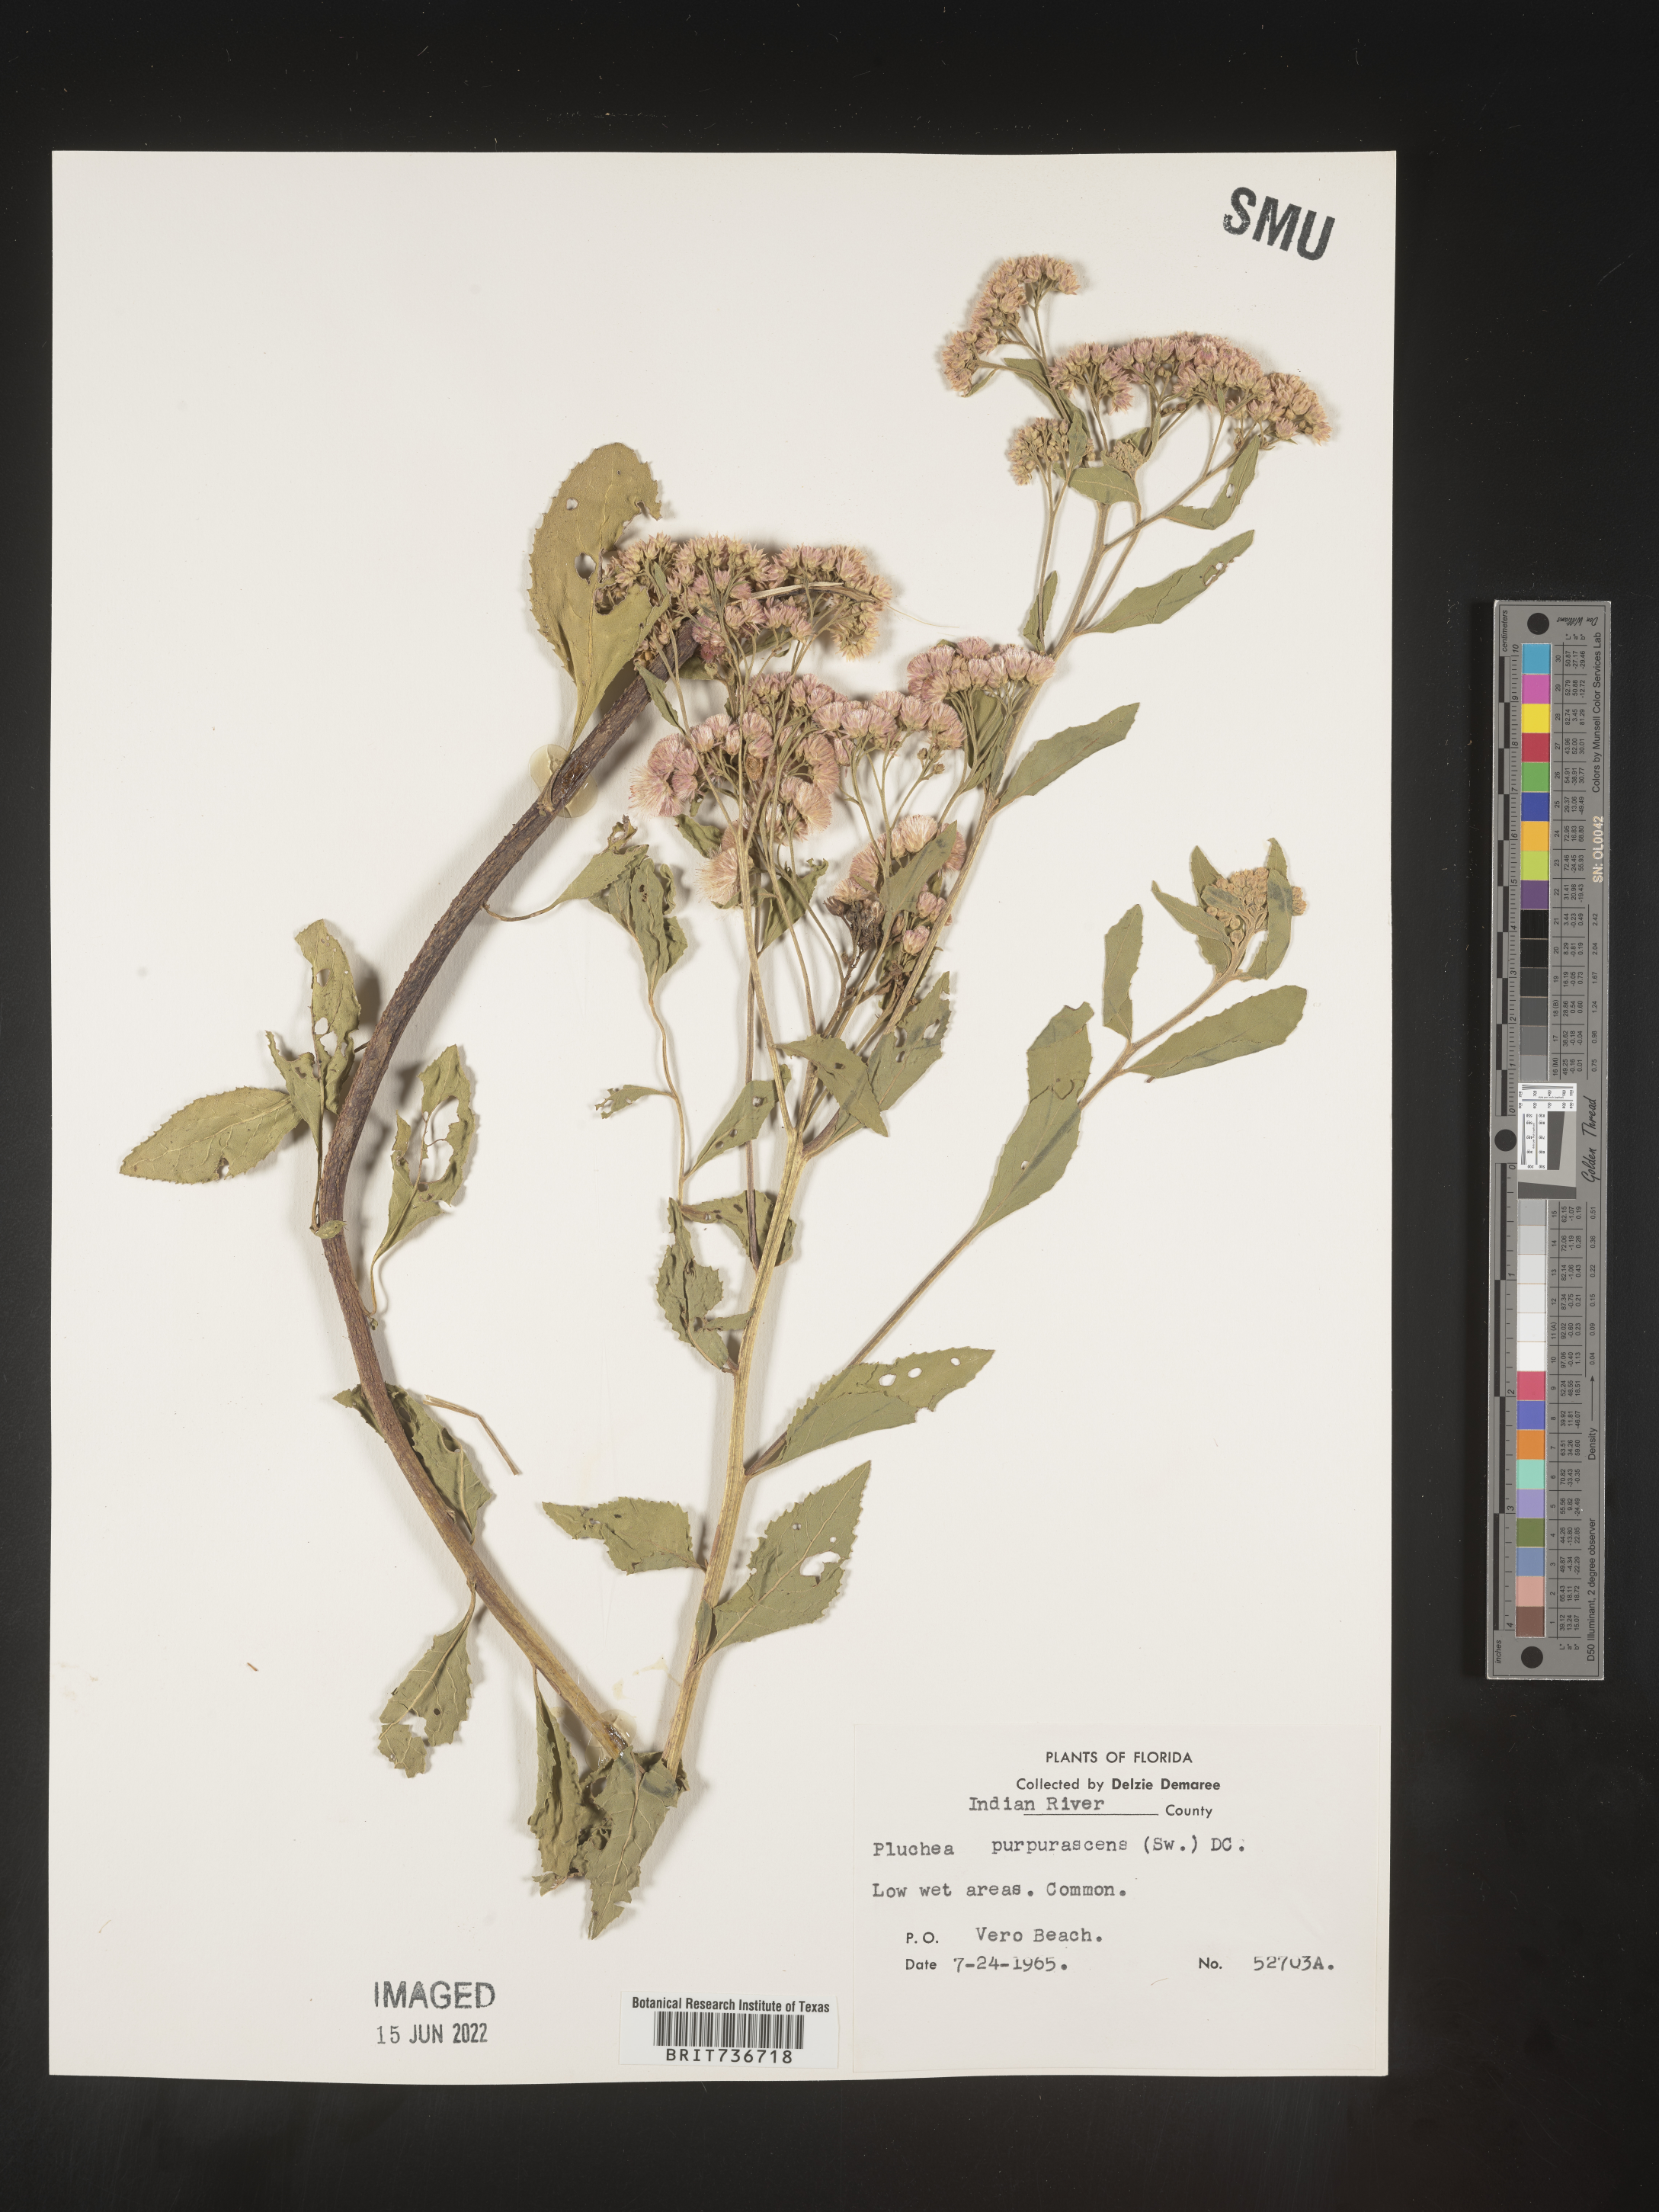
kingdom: Plantae
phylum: Tracheophyta
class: Magnoliopsida
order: Asterales
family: Asteraceae
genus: Pluchea
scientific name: Pluchea odorata
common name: Saltmarsh fleabane
